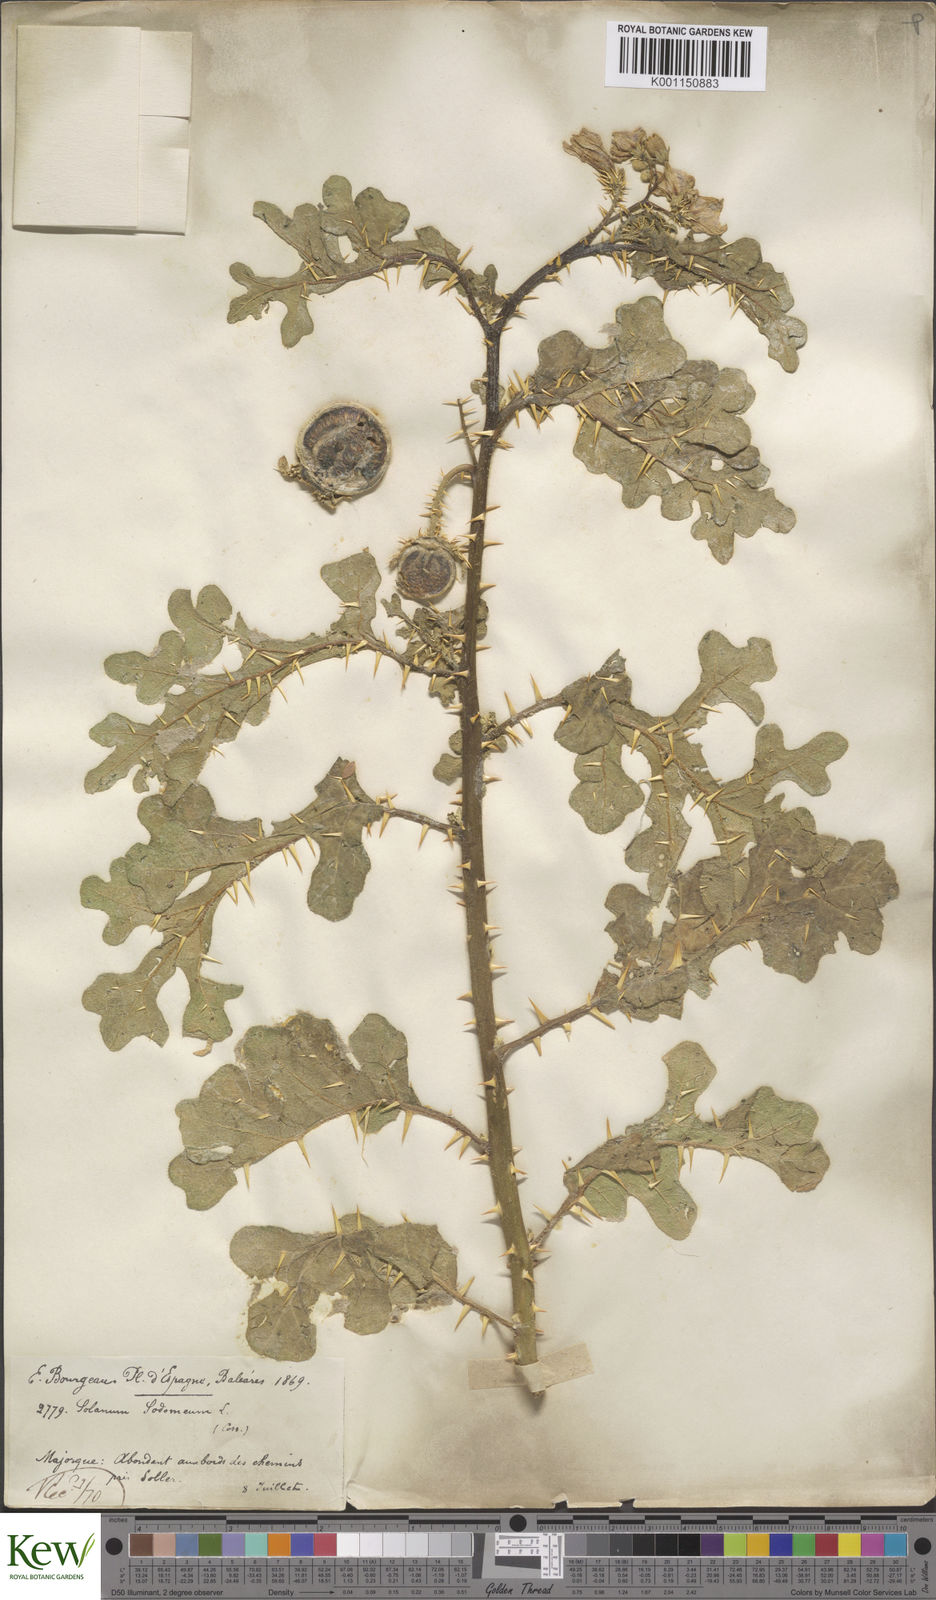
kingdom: Plantae
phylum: Tracheophyta
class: Magnoliopsida
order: Solanales
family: Solanaceae
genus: Solanum
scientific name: Solanum anguivi
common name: Forest bitterberry
